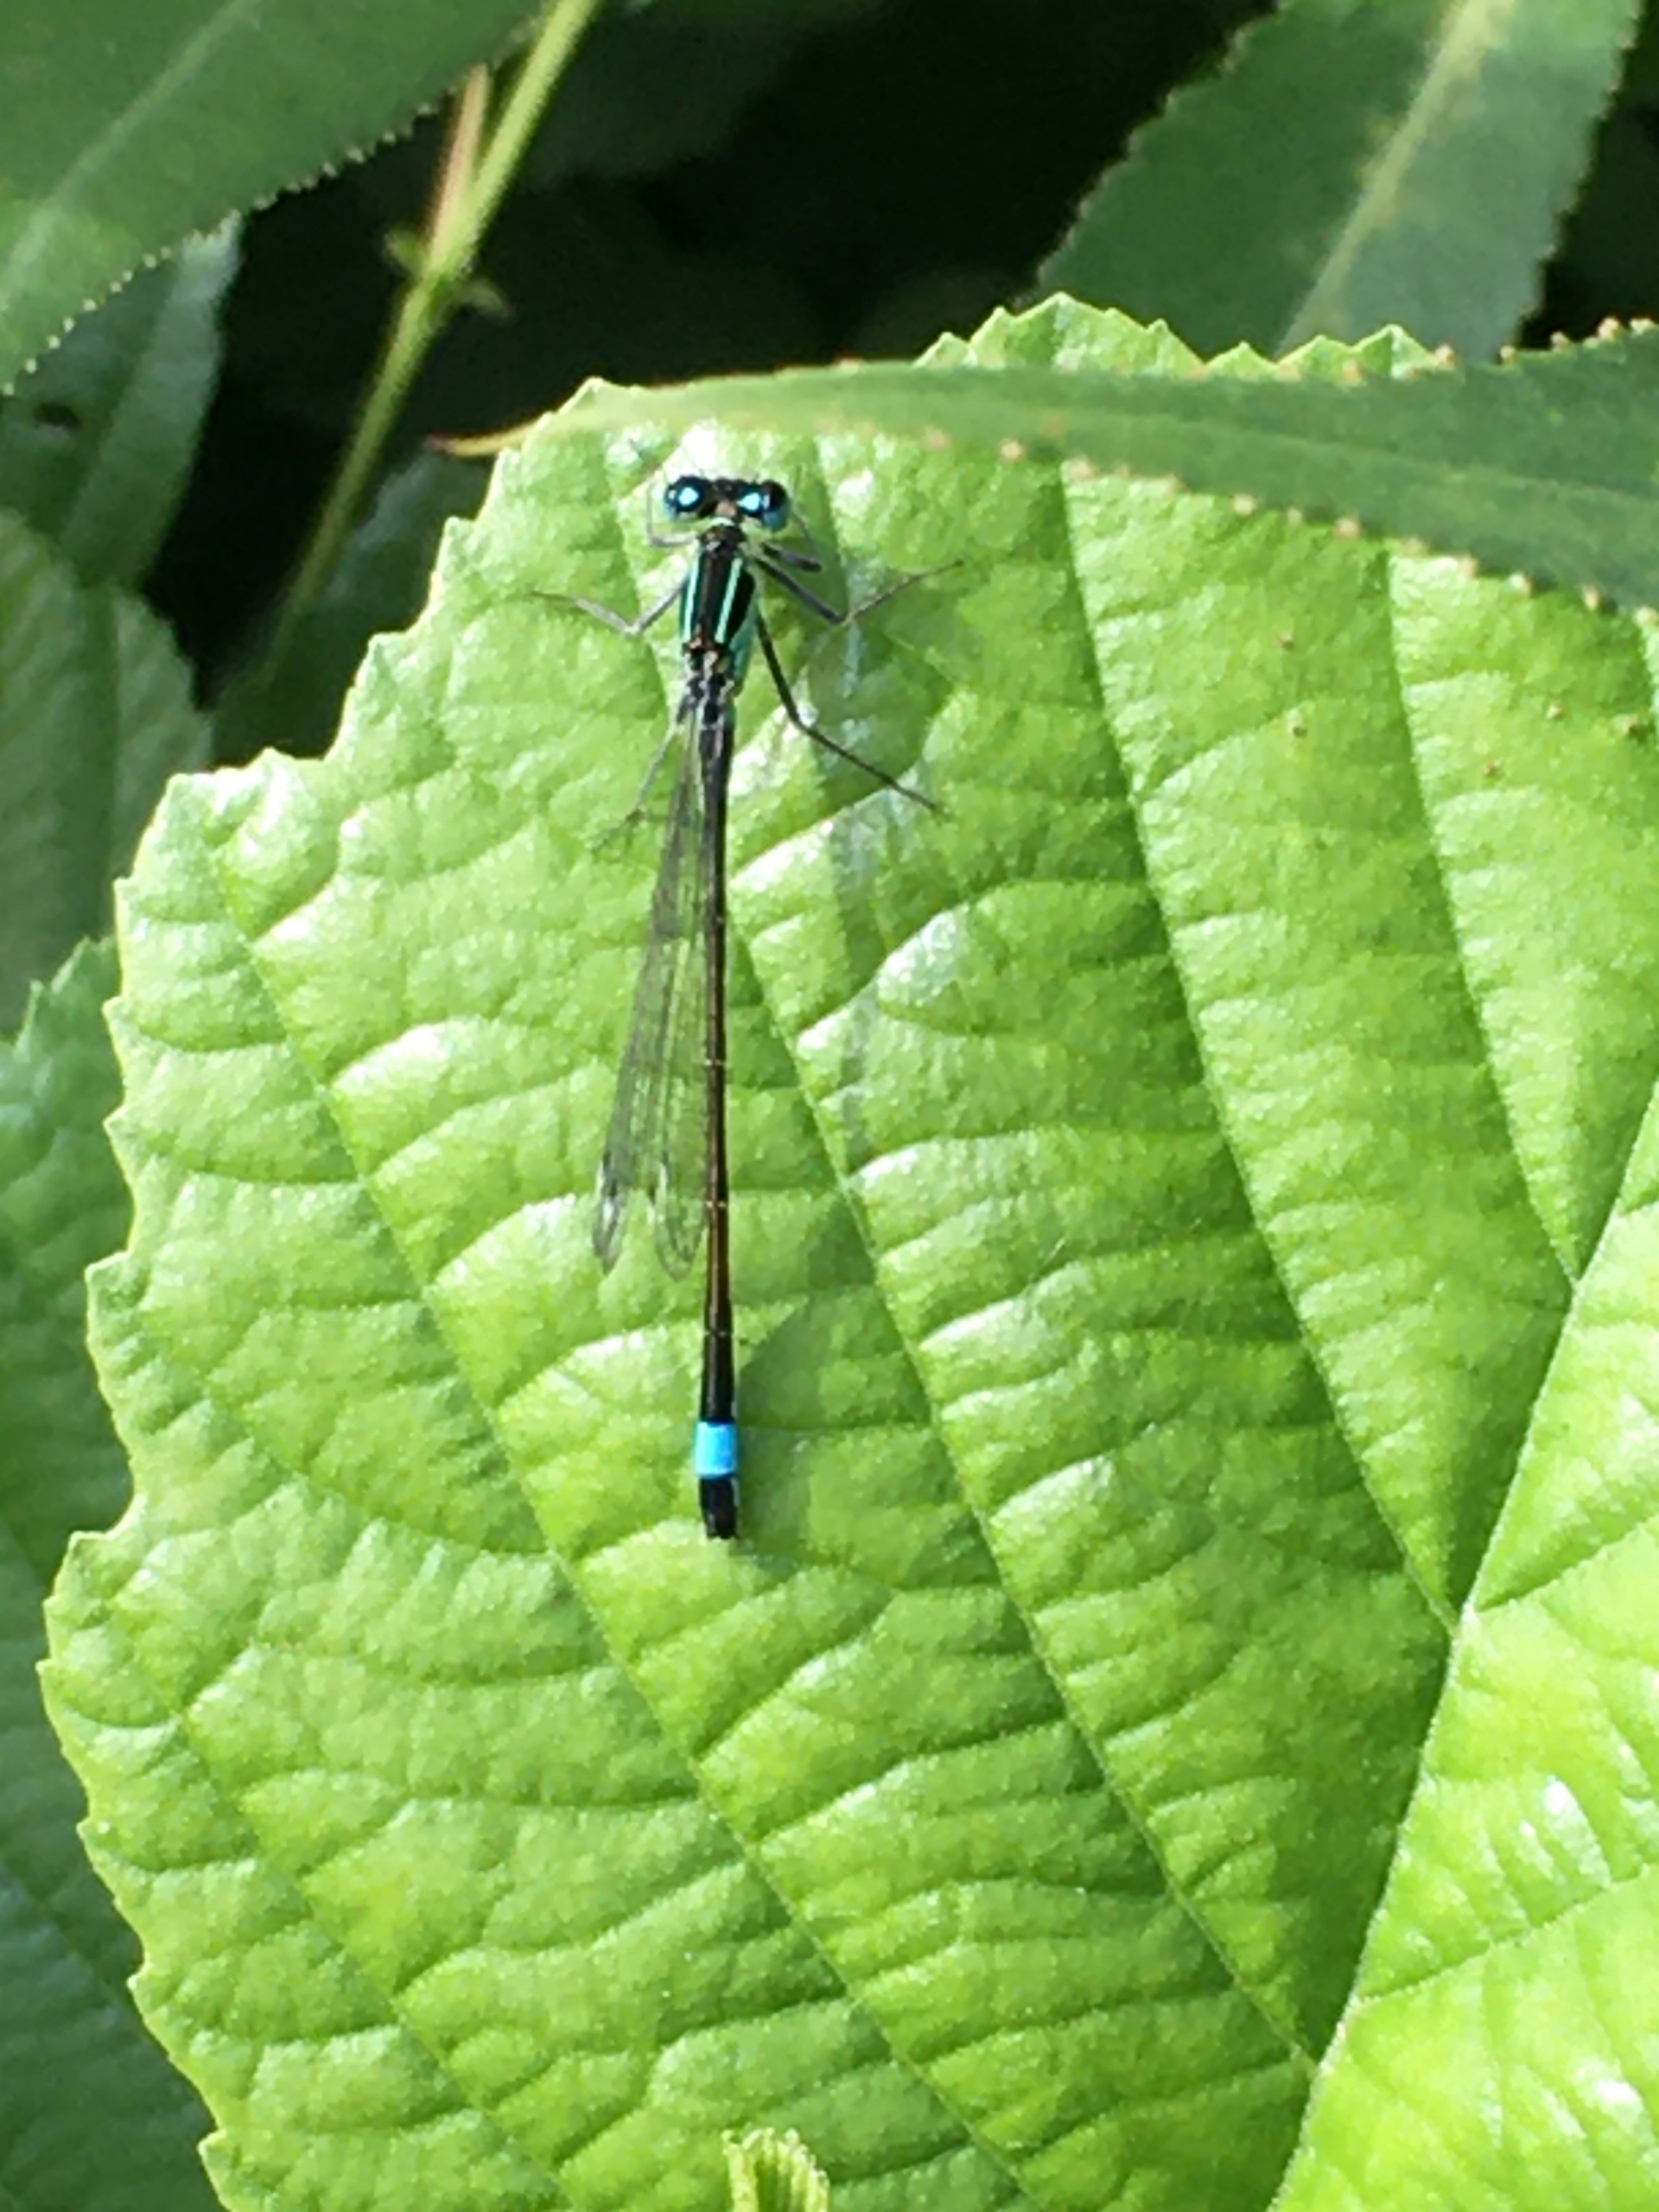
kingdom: Animalia
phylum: Arthropoda
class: Insecta
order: Odonata
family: Coenagrionidae
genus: Ischnura
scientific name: Ischnura elegans
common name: Stor farvevandnymfe
